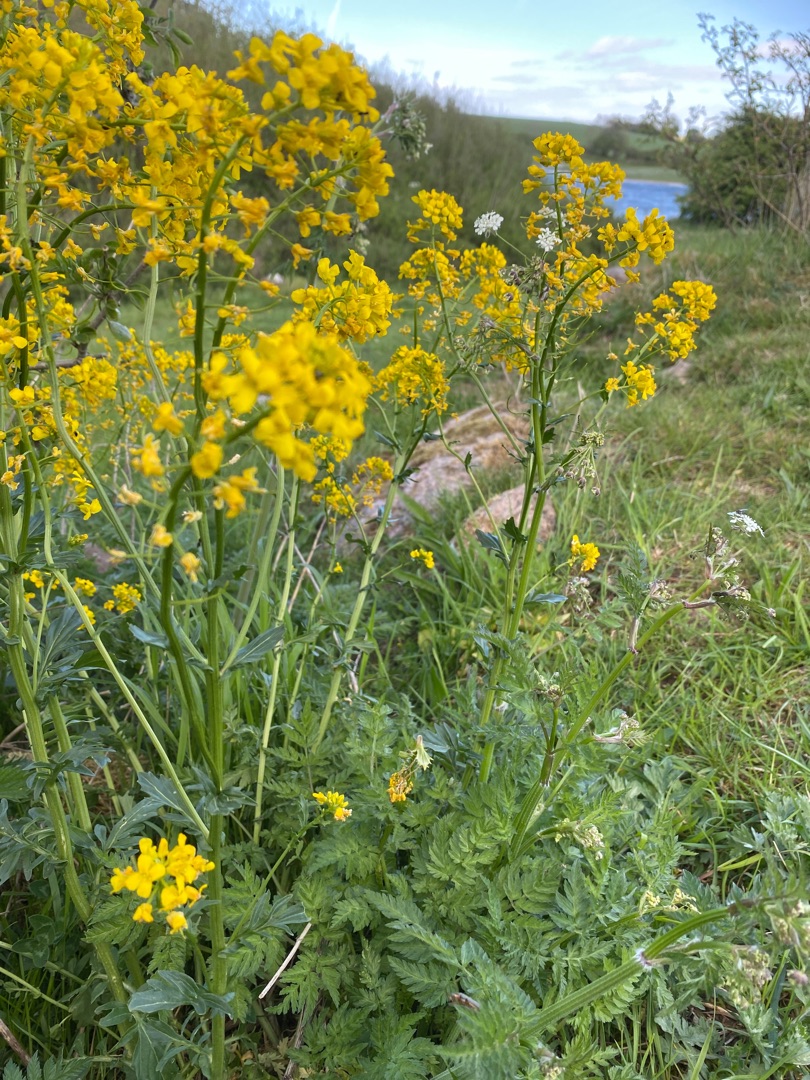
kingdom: Plantae
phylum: Tracheophyta
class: Magnoliopsida
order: Brassicales
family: Brassicaceae
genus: Barbarea
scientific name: Barbarea vulgaris
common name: Udspærret vinterkarse
